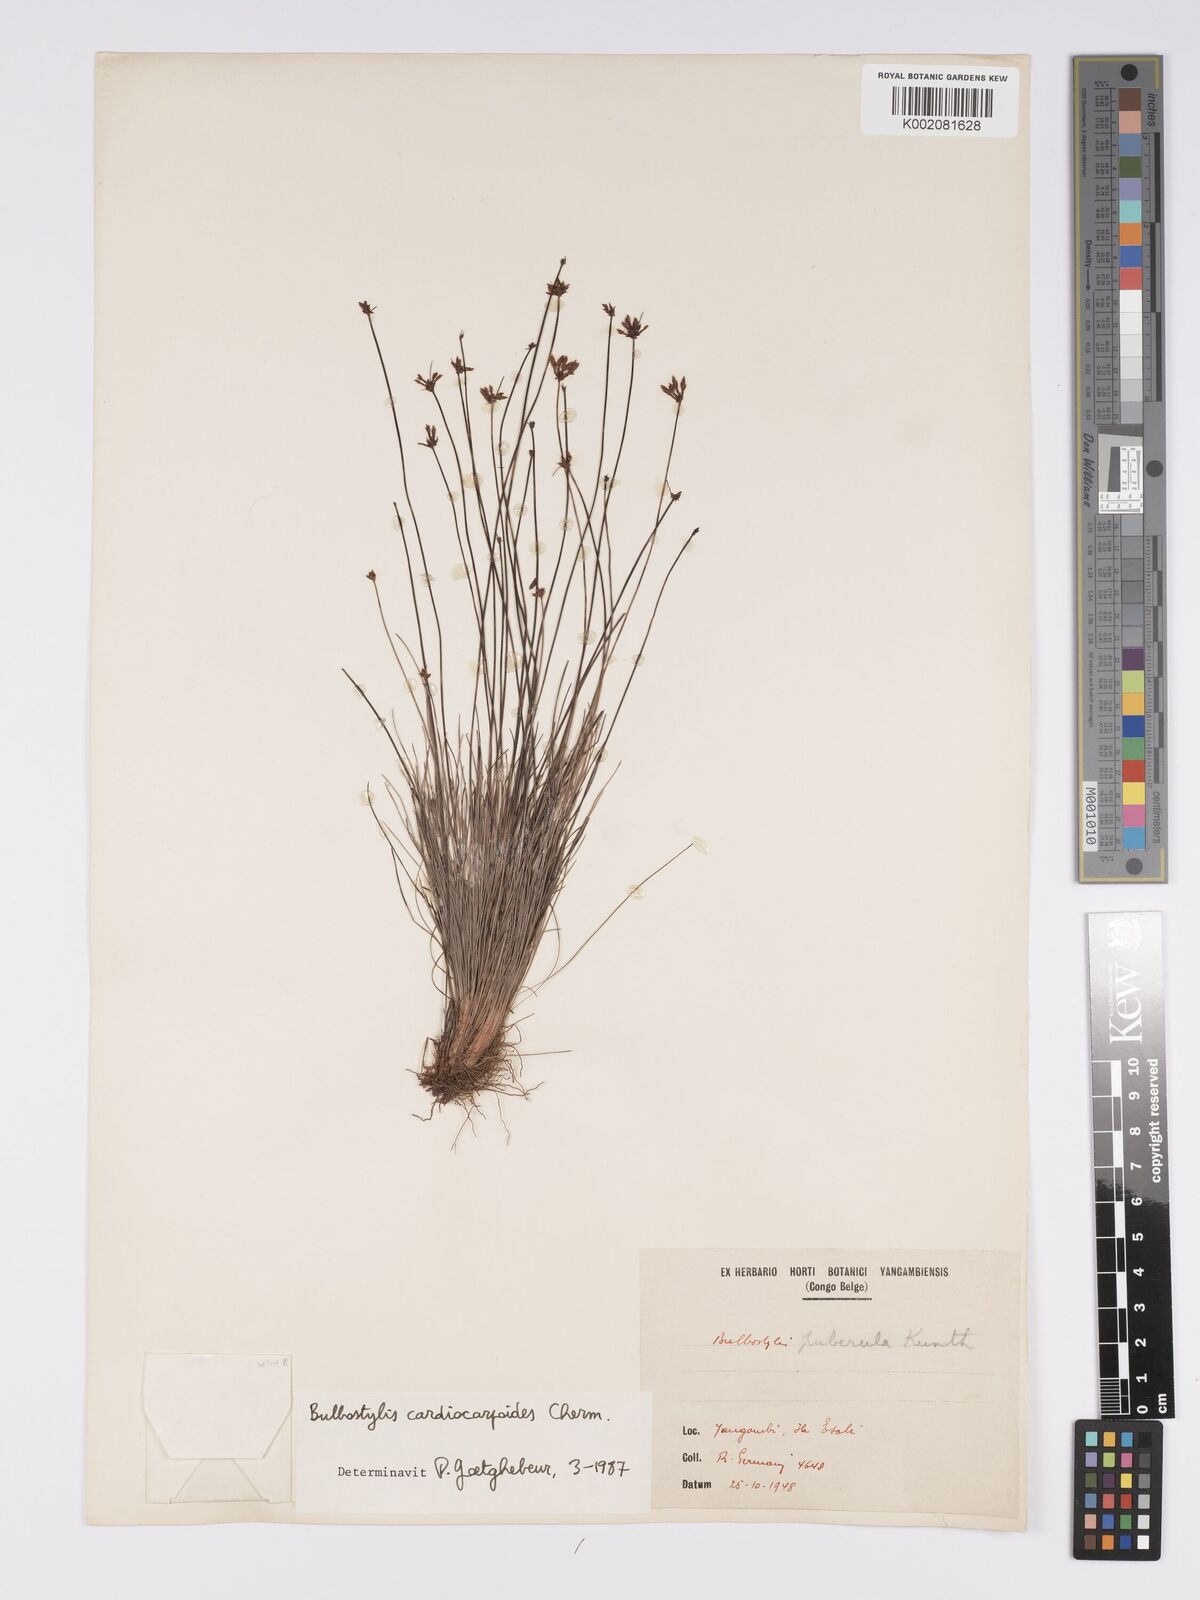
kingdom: Plantae
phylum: Tracheophyta
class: Liliopsida
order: Poales
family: Cyperaceae
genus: Bulbostylis
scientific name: Bulbostylis cardiocarpoides
